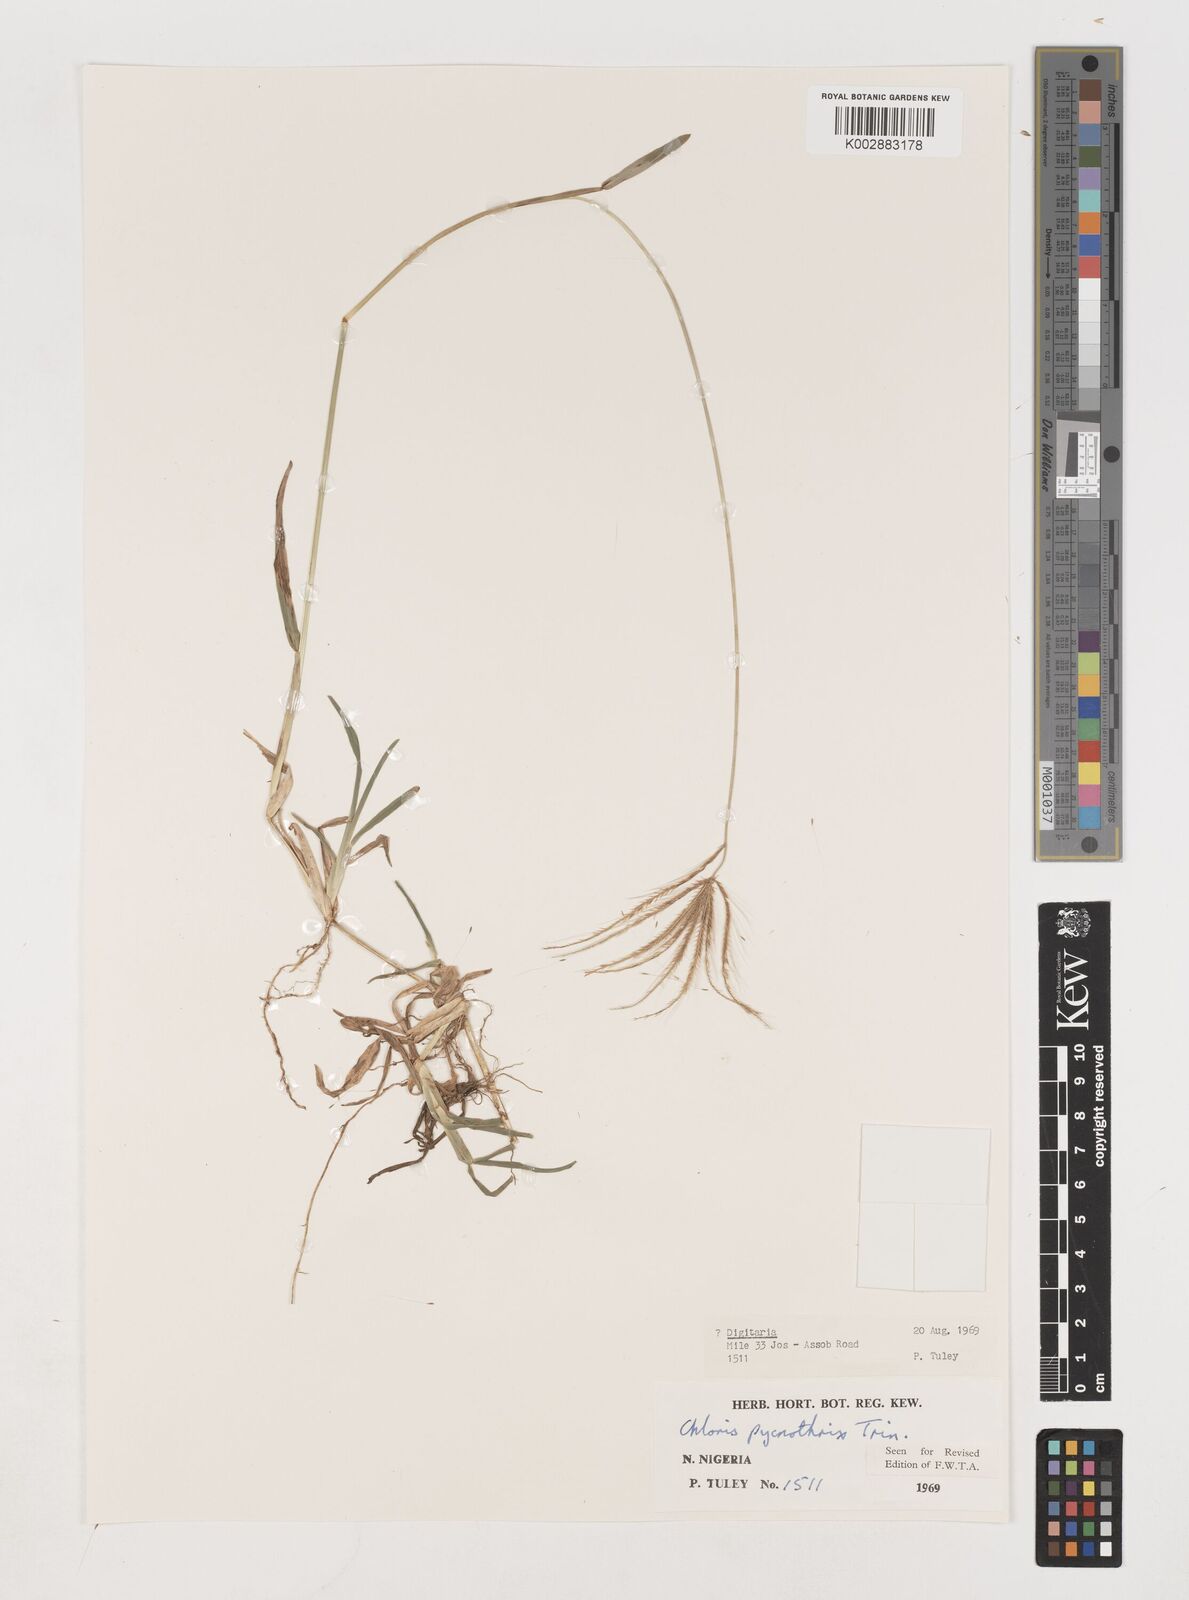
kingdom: Plantae
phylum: Tracheophyta
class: Liliopsida
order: Poales
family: Poaceae
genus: Chloris
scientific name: Chloris pycnothrix
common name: Spiderweb chloris
